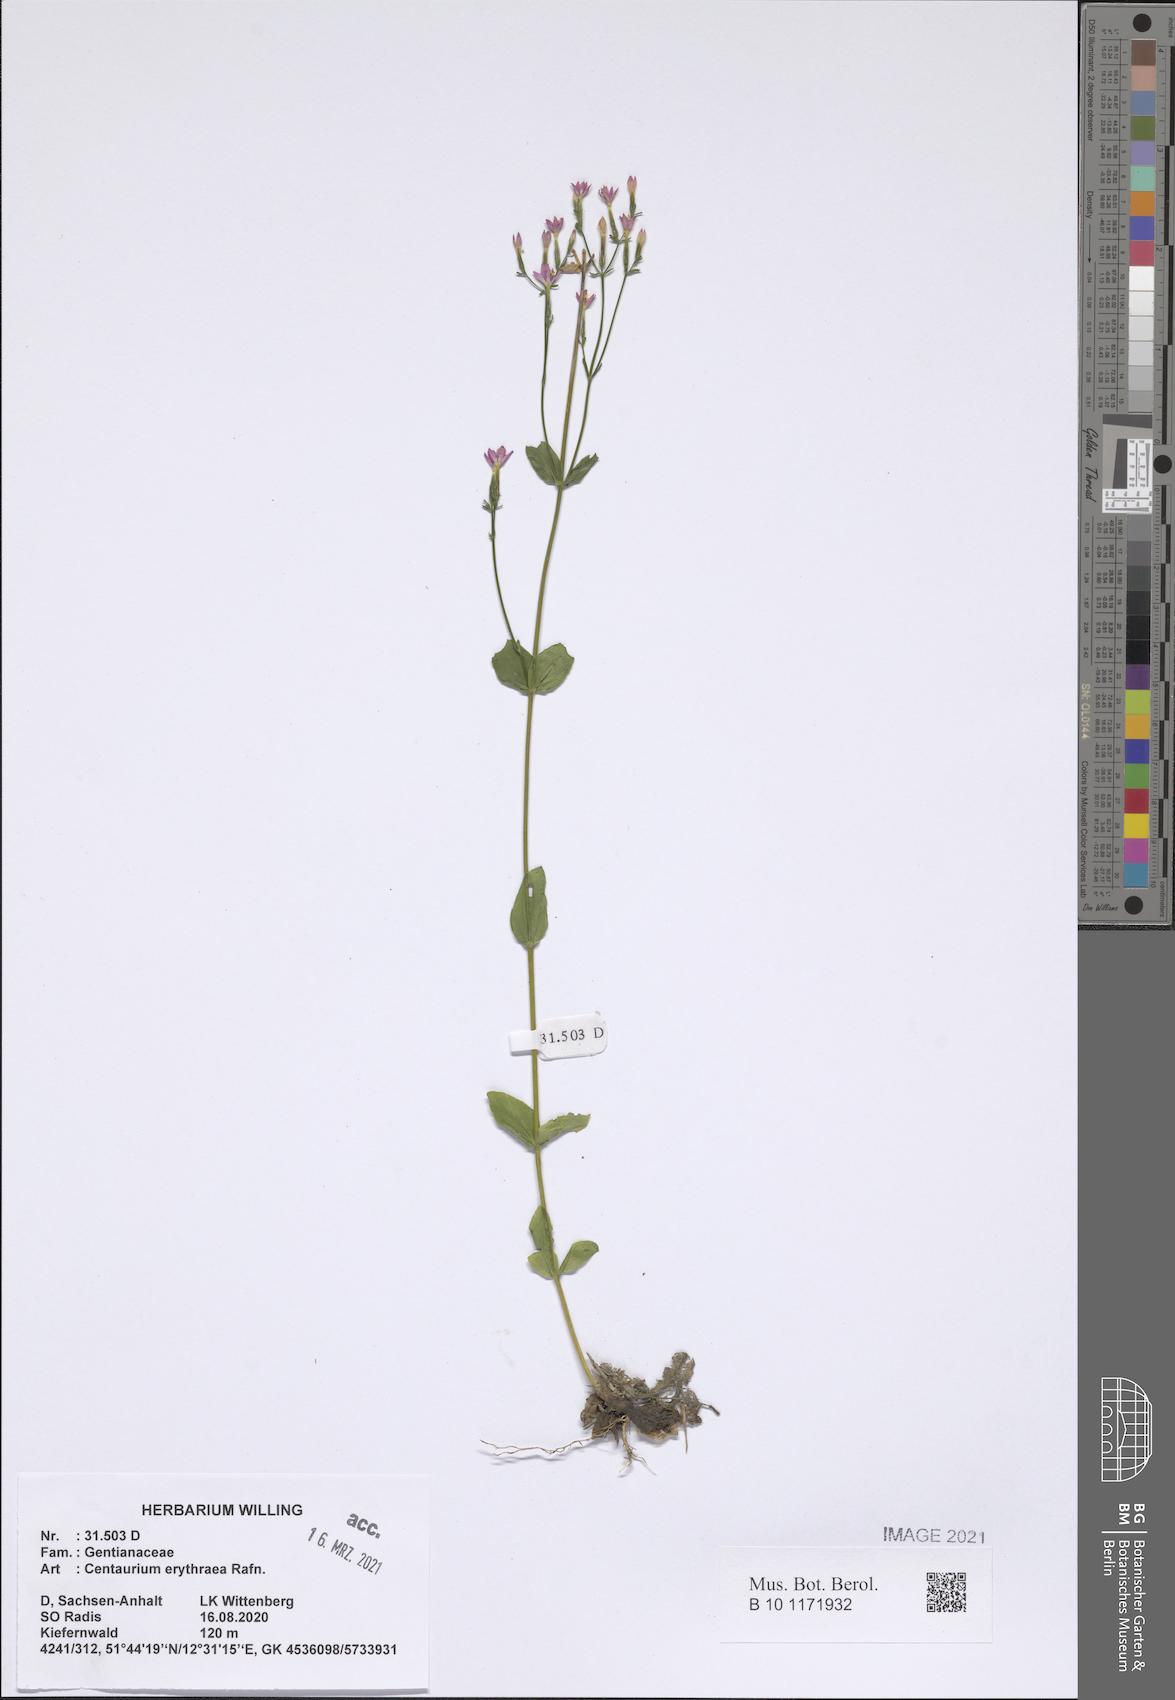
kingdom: Plantae
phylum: Tracheophyta
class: Magnoliopsida
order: Gentianales
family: Gentianaceae
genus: Centaurium
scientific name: Centaurium erythraea
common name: Common centaury
